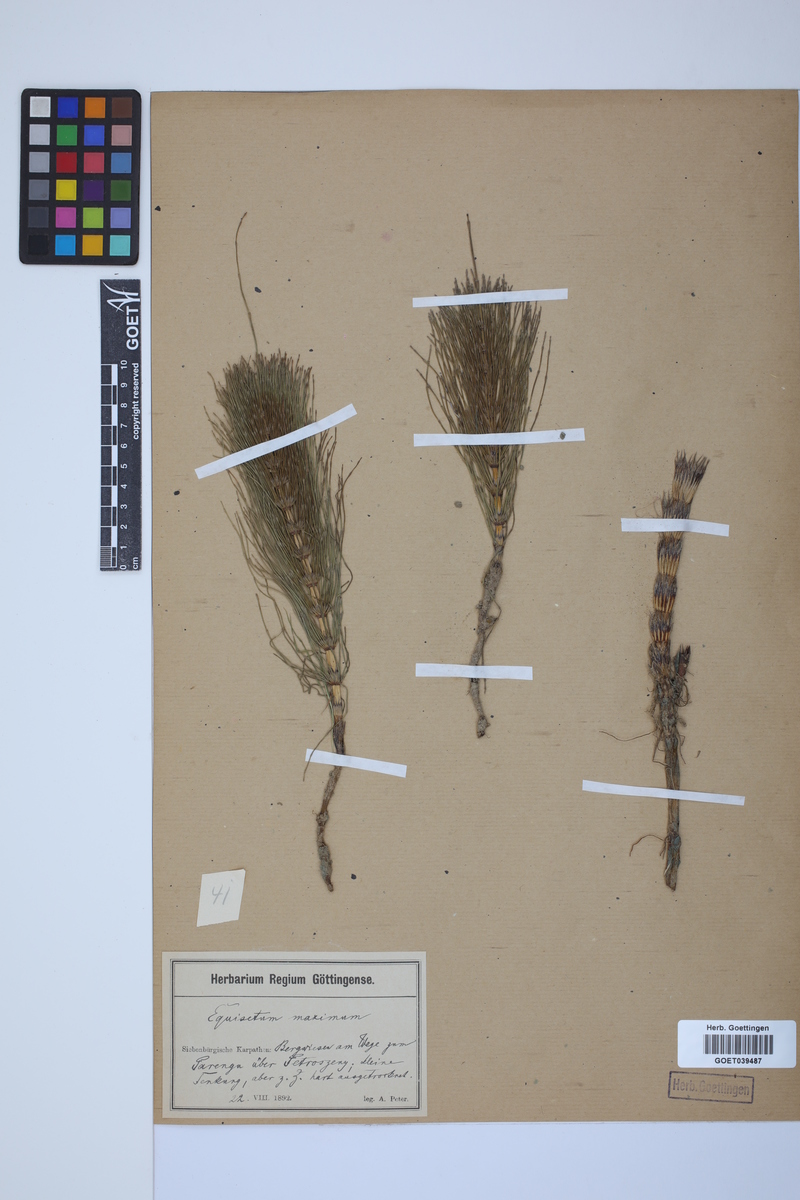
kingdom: Plantae
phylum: Tracheophyta
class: Polypodiopsida
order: Equisetales
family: Equisetaceae
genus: Equisetum
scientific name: Equisetum telmateia
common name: Great horsetail
